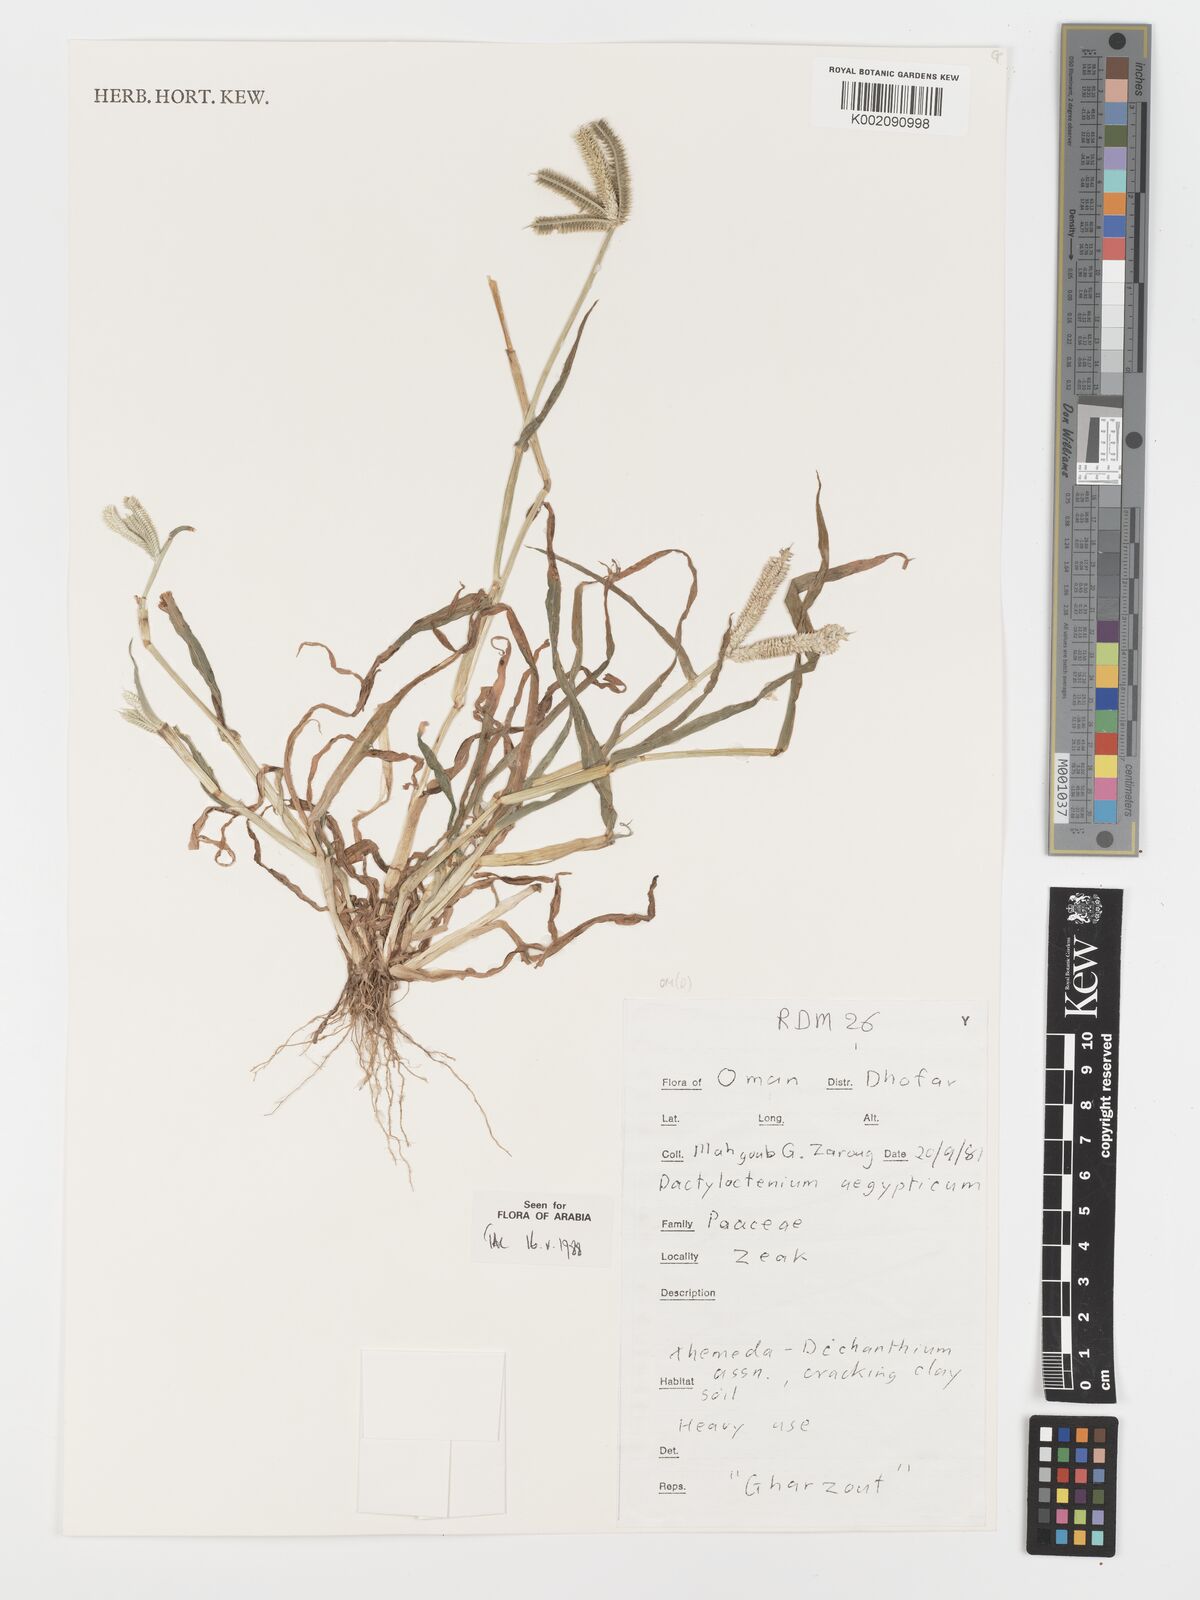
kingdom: Plantae
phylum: Tracheophyta
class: Liliopsida
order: Poales
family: Poaceae
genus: Dactyloctenium
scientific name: Dactyloctenium aegyptium
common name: Egyptian grass
